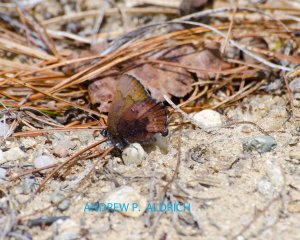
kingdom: Animalia
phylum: Arthropoda
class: Insecta
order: Lepidoptera
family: Lycaenidae
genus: Incisalia
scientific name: Incisalia irioides
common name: Brown Elfin
